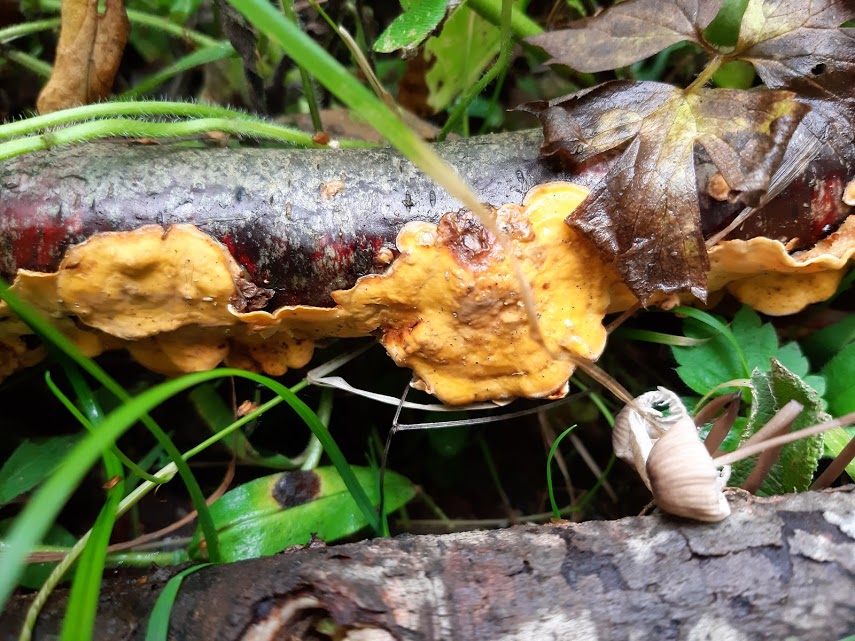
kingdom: Fungi
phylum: Basidiomycota
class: Agaricomycetes
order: Russulales
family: Stereaceae
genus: Stereum
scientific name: Stereum hirsutum
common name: håret lædersvamp
